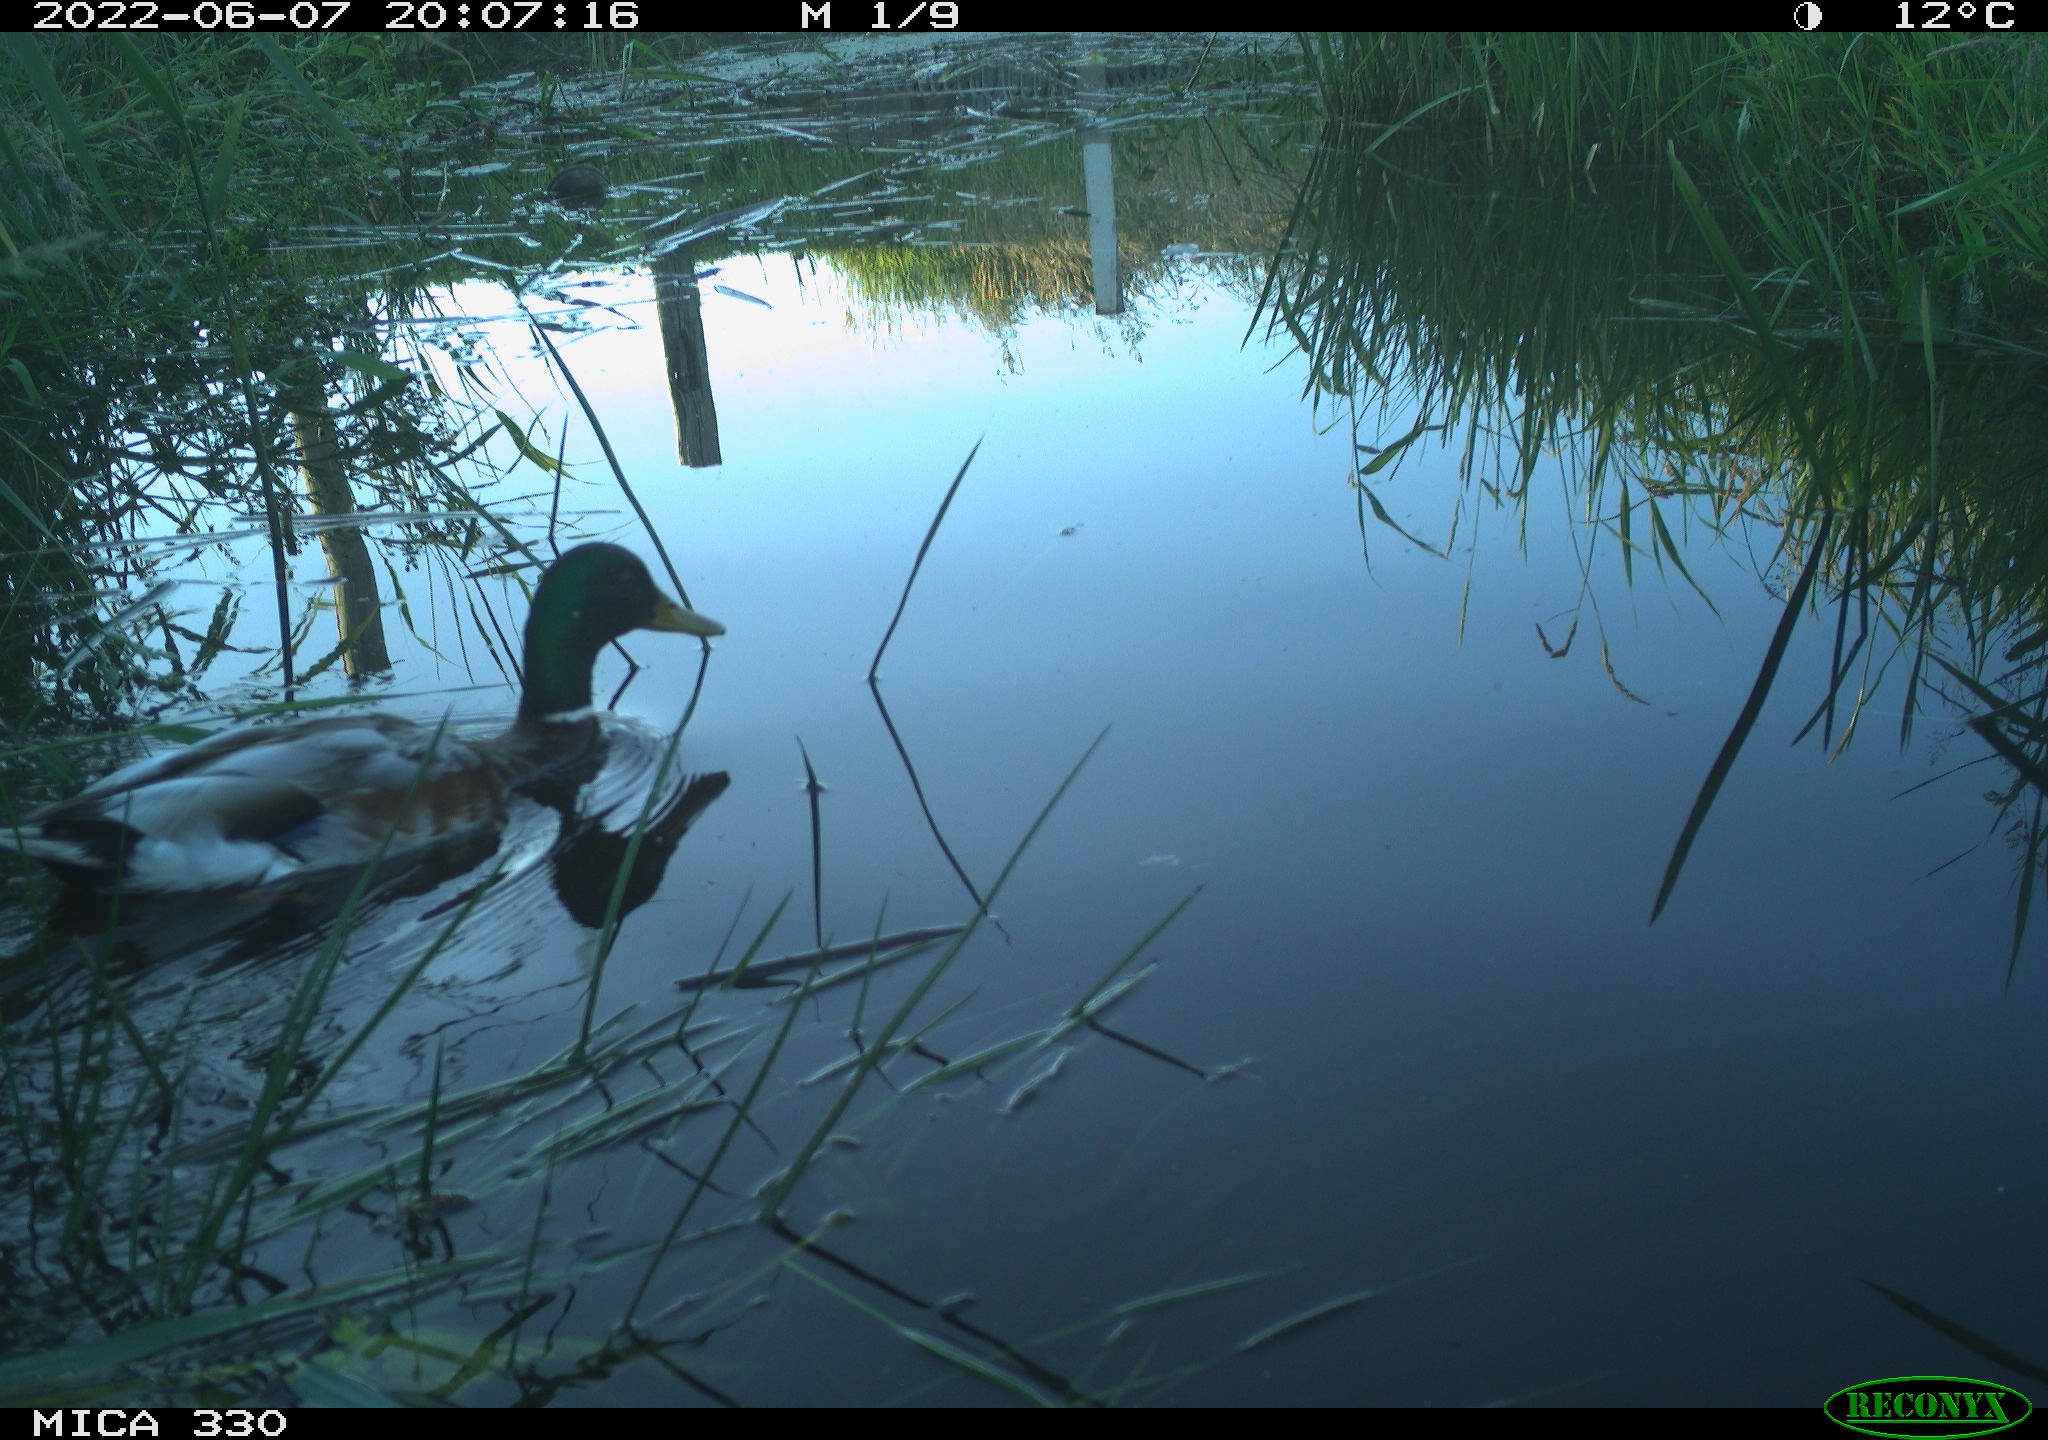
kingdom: Animalia
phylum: Chordata
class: Aves
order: Gruiformes
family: Rallidae
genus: Fulica
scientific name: Fulica atra
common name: Eurasian coot
